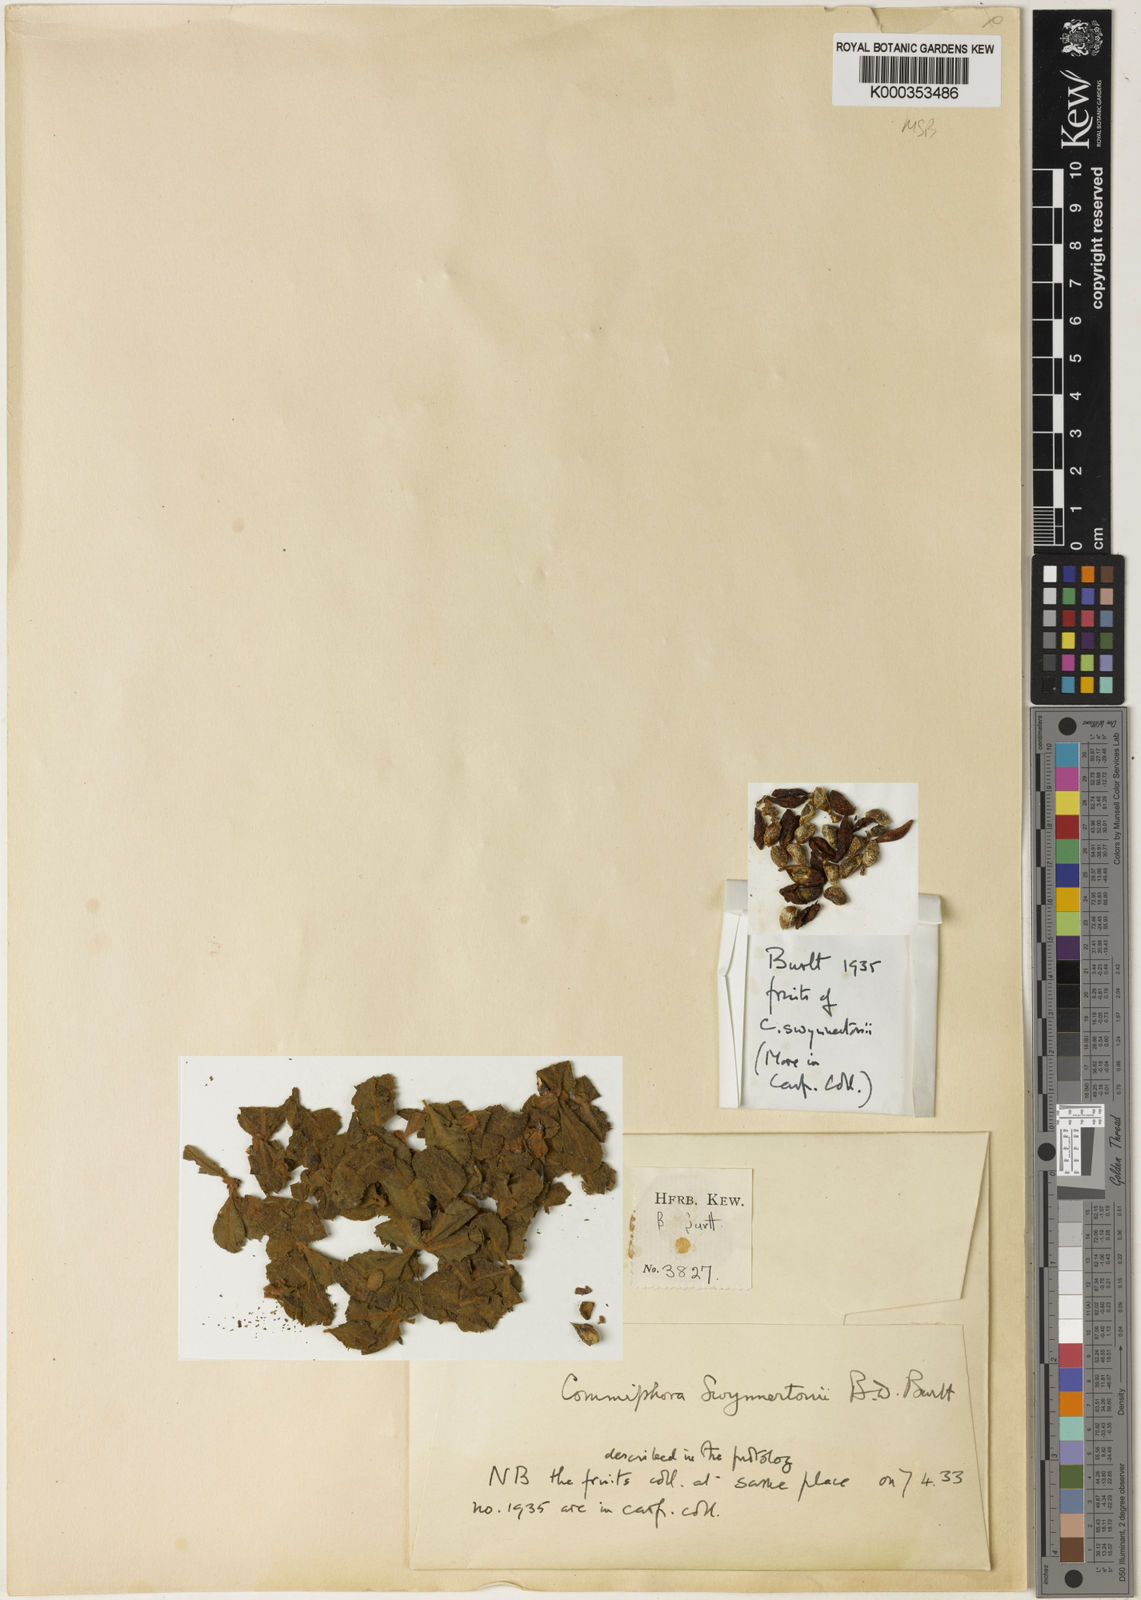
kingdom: Plantae
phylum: Tracheophyta
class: Magnoliopsida
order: Sapindales
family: Burseraceae
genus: Commiphora
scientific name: Commiphora swynnertonii
